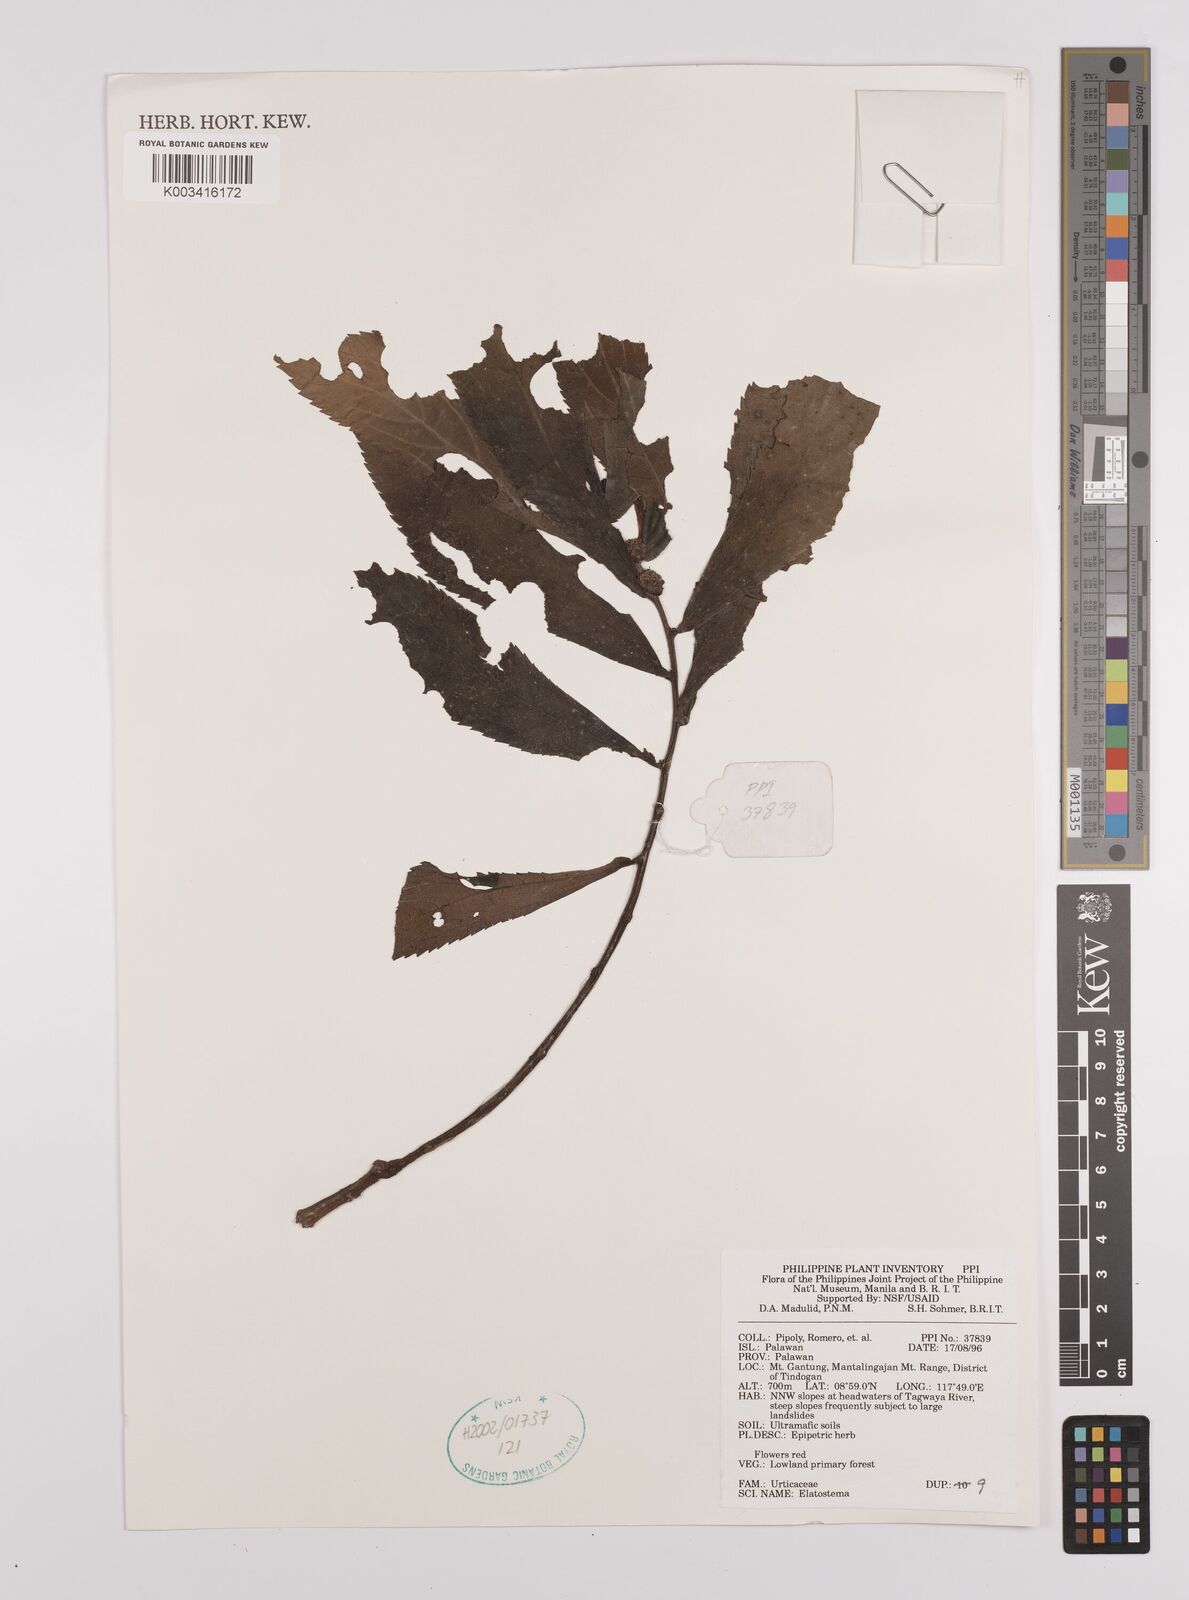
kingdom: Plantae
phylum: Tracheophyta
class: Magnoliopsida
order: Rosales
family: Urticaceae
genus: Elatostema
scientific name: Elatostema
